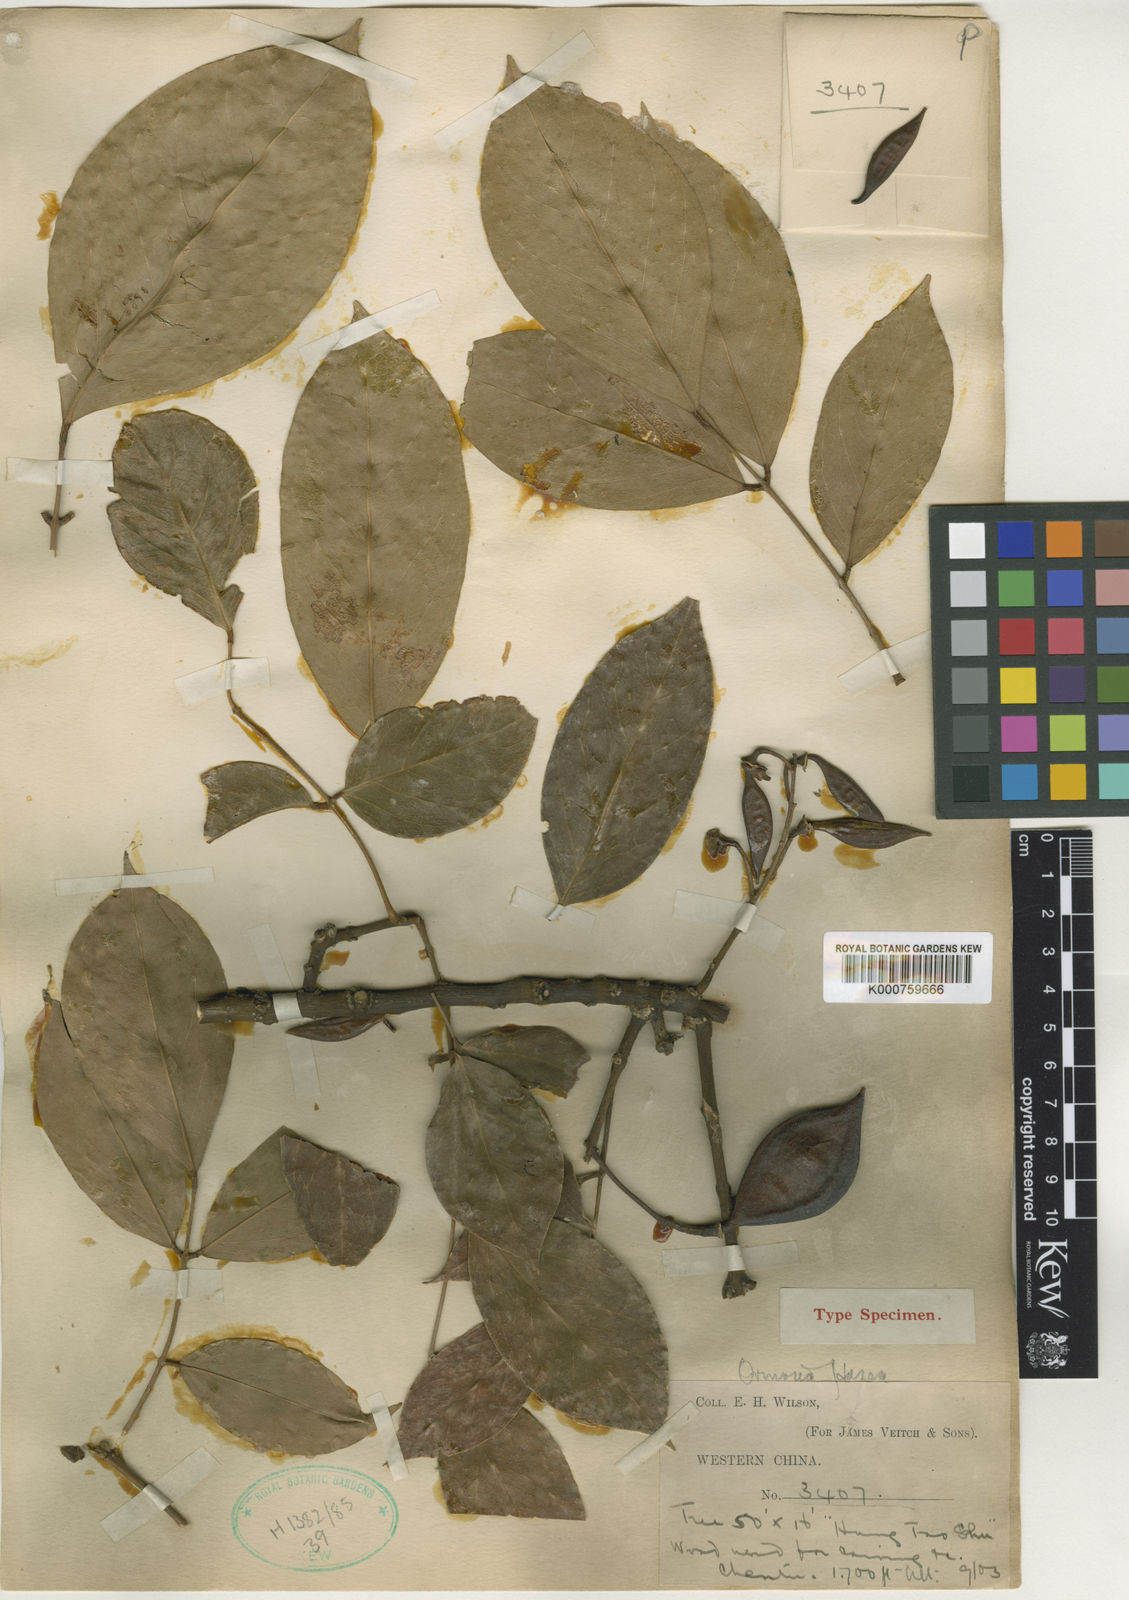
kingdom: Plantae
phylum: Tracheophyta
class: Magnoliopsida
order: Fabales
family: Fabaceae
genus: Ormosia
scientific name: Ormosia hosiei
